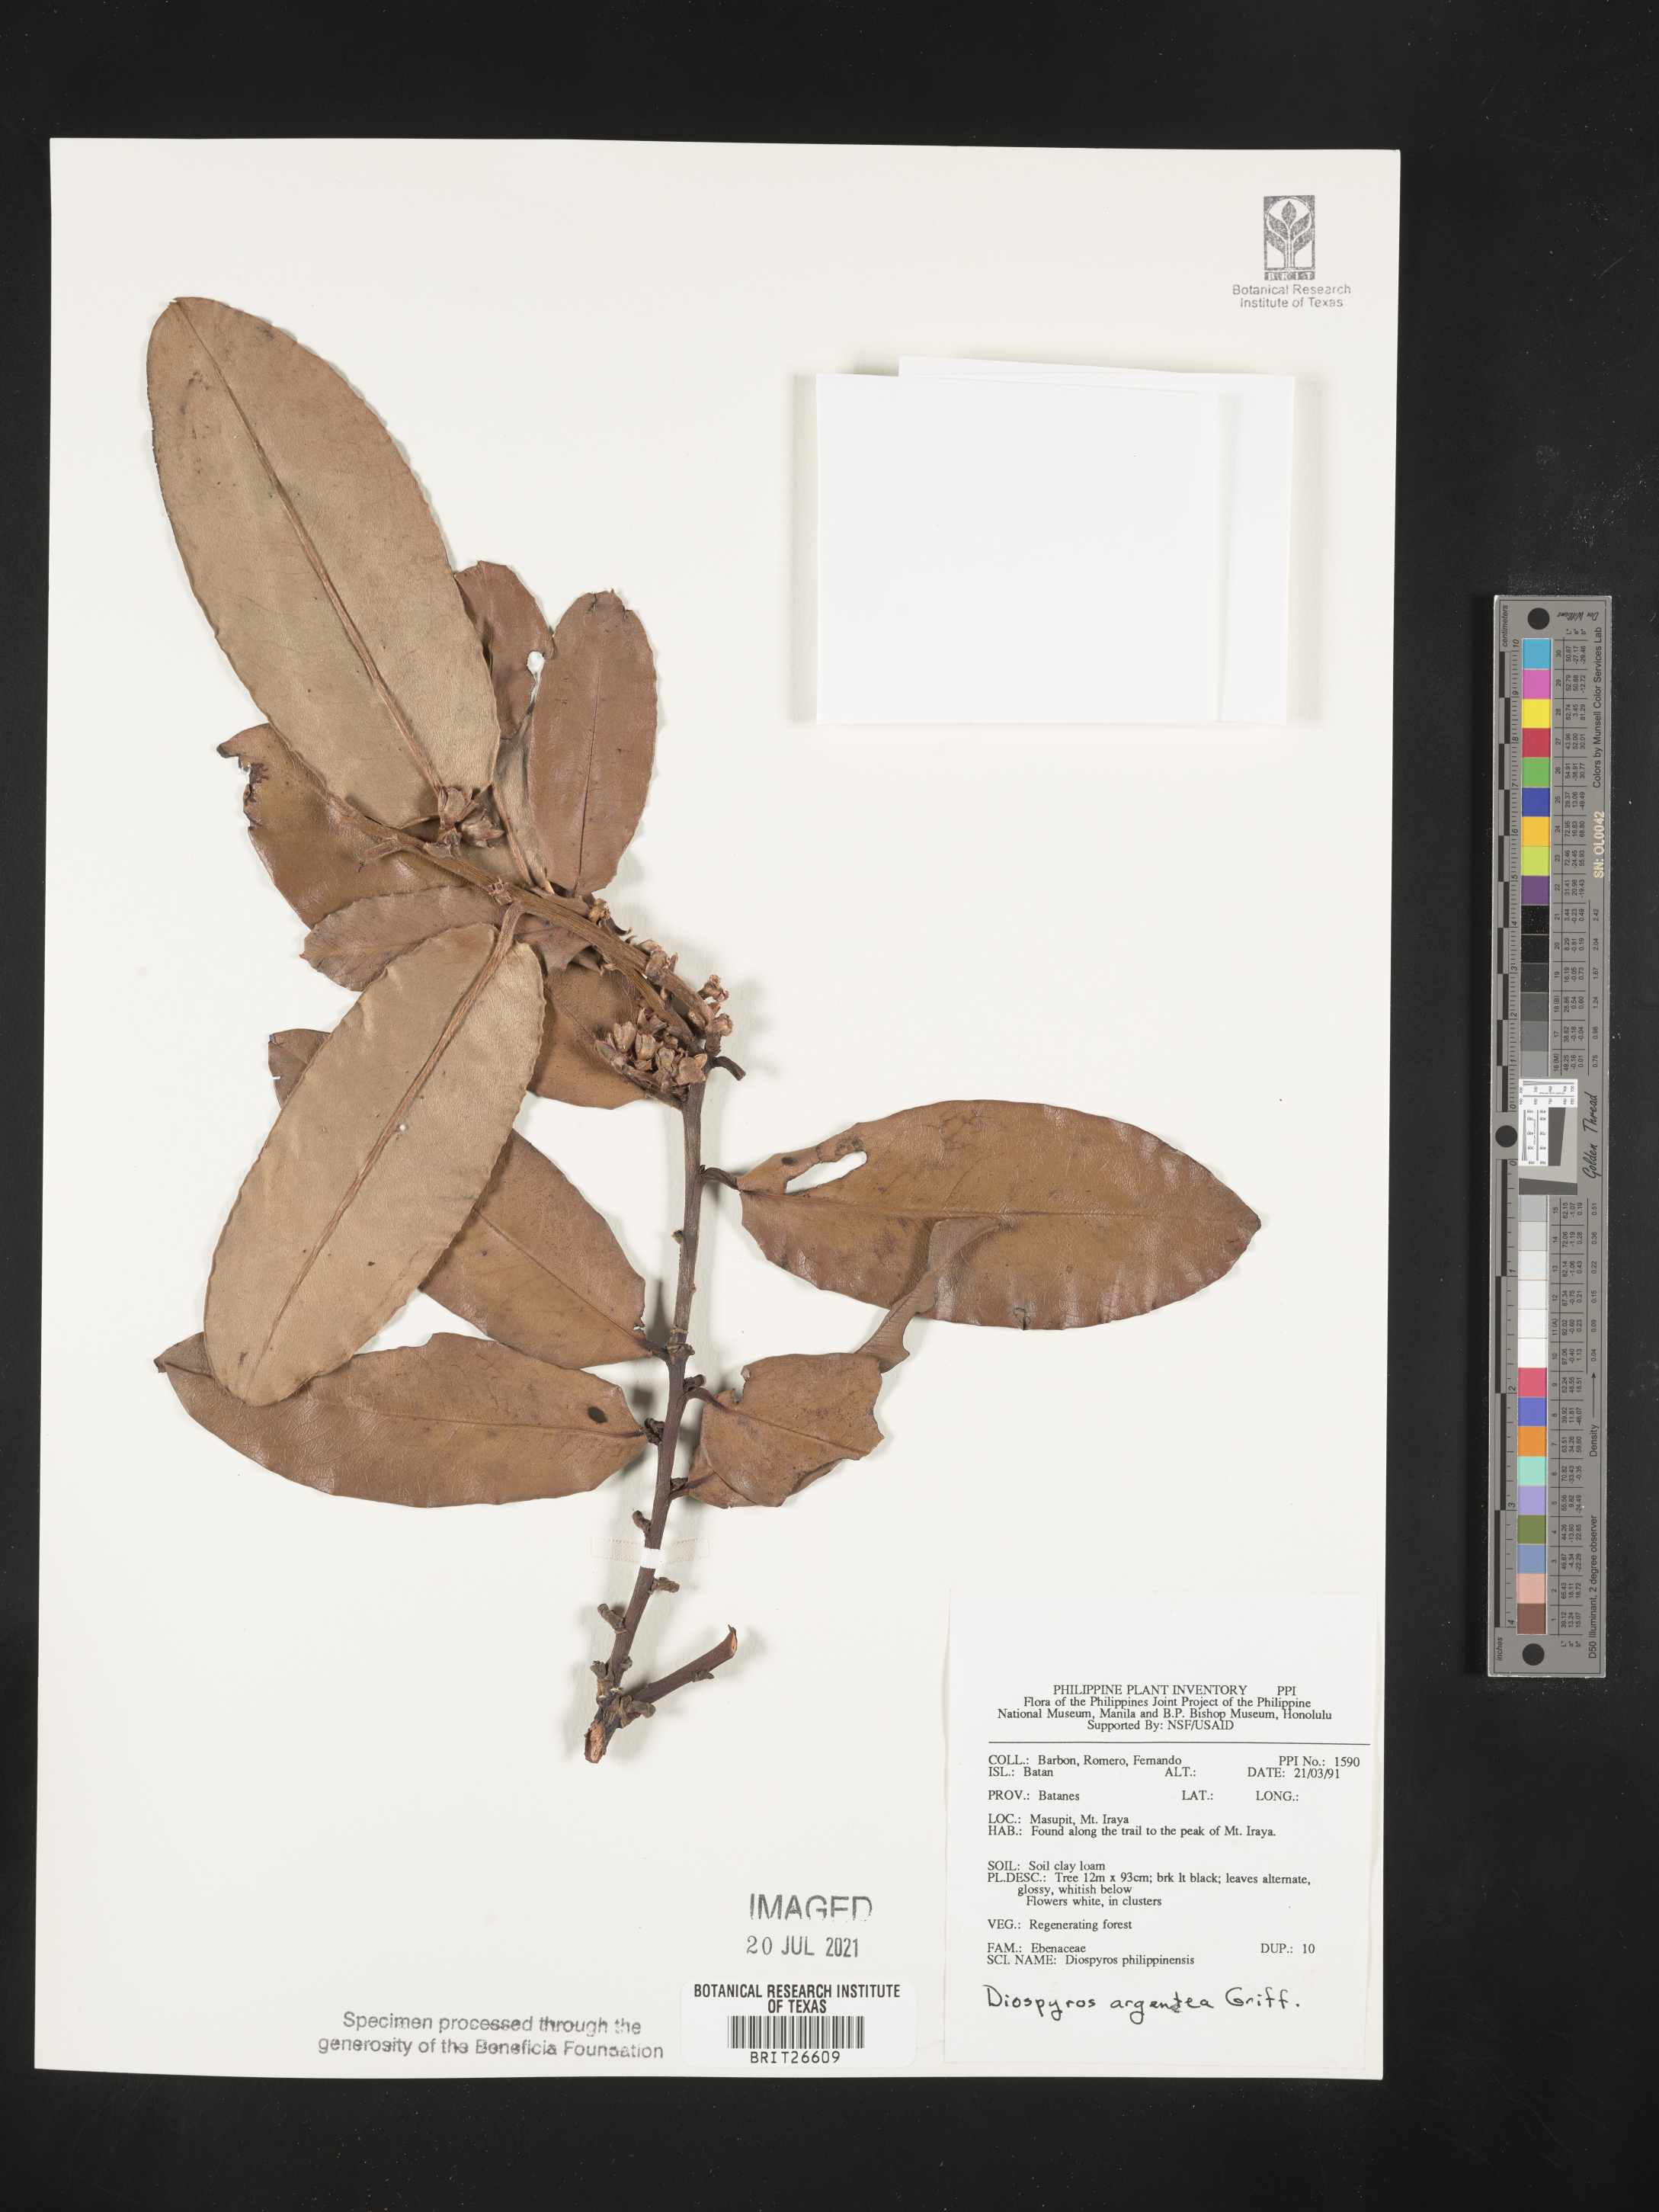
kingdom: Plantae
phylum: Tracheophyta
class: Magnoliopsida
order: Ericales
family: Ebenaceae
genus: Diospyros
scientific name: Diospyros argentea
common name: Silver-leaved ebony
